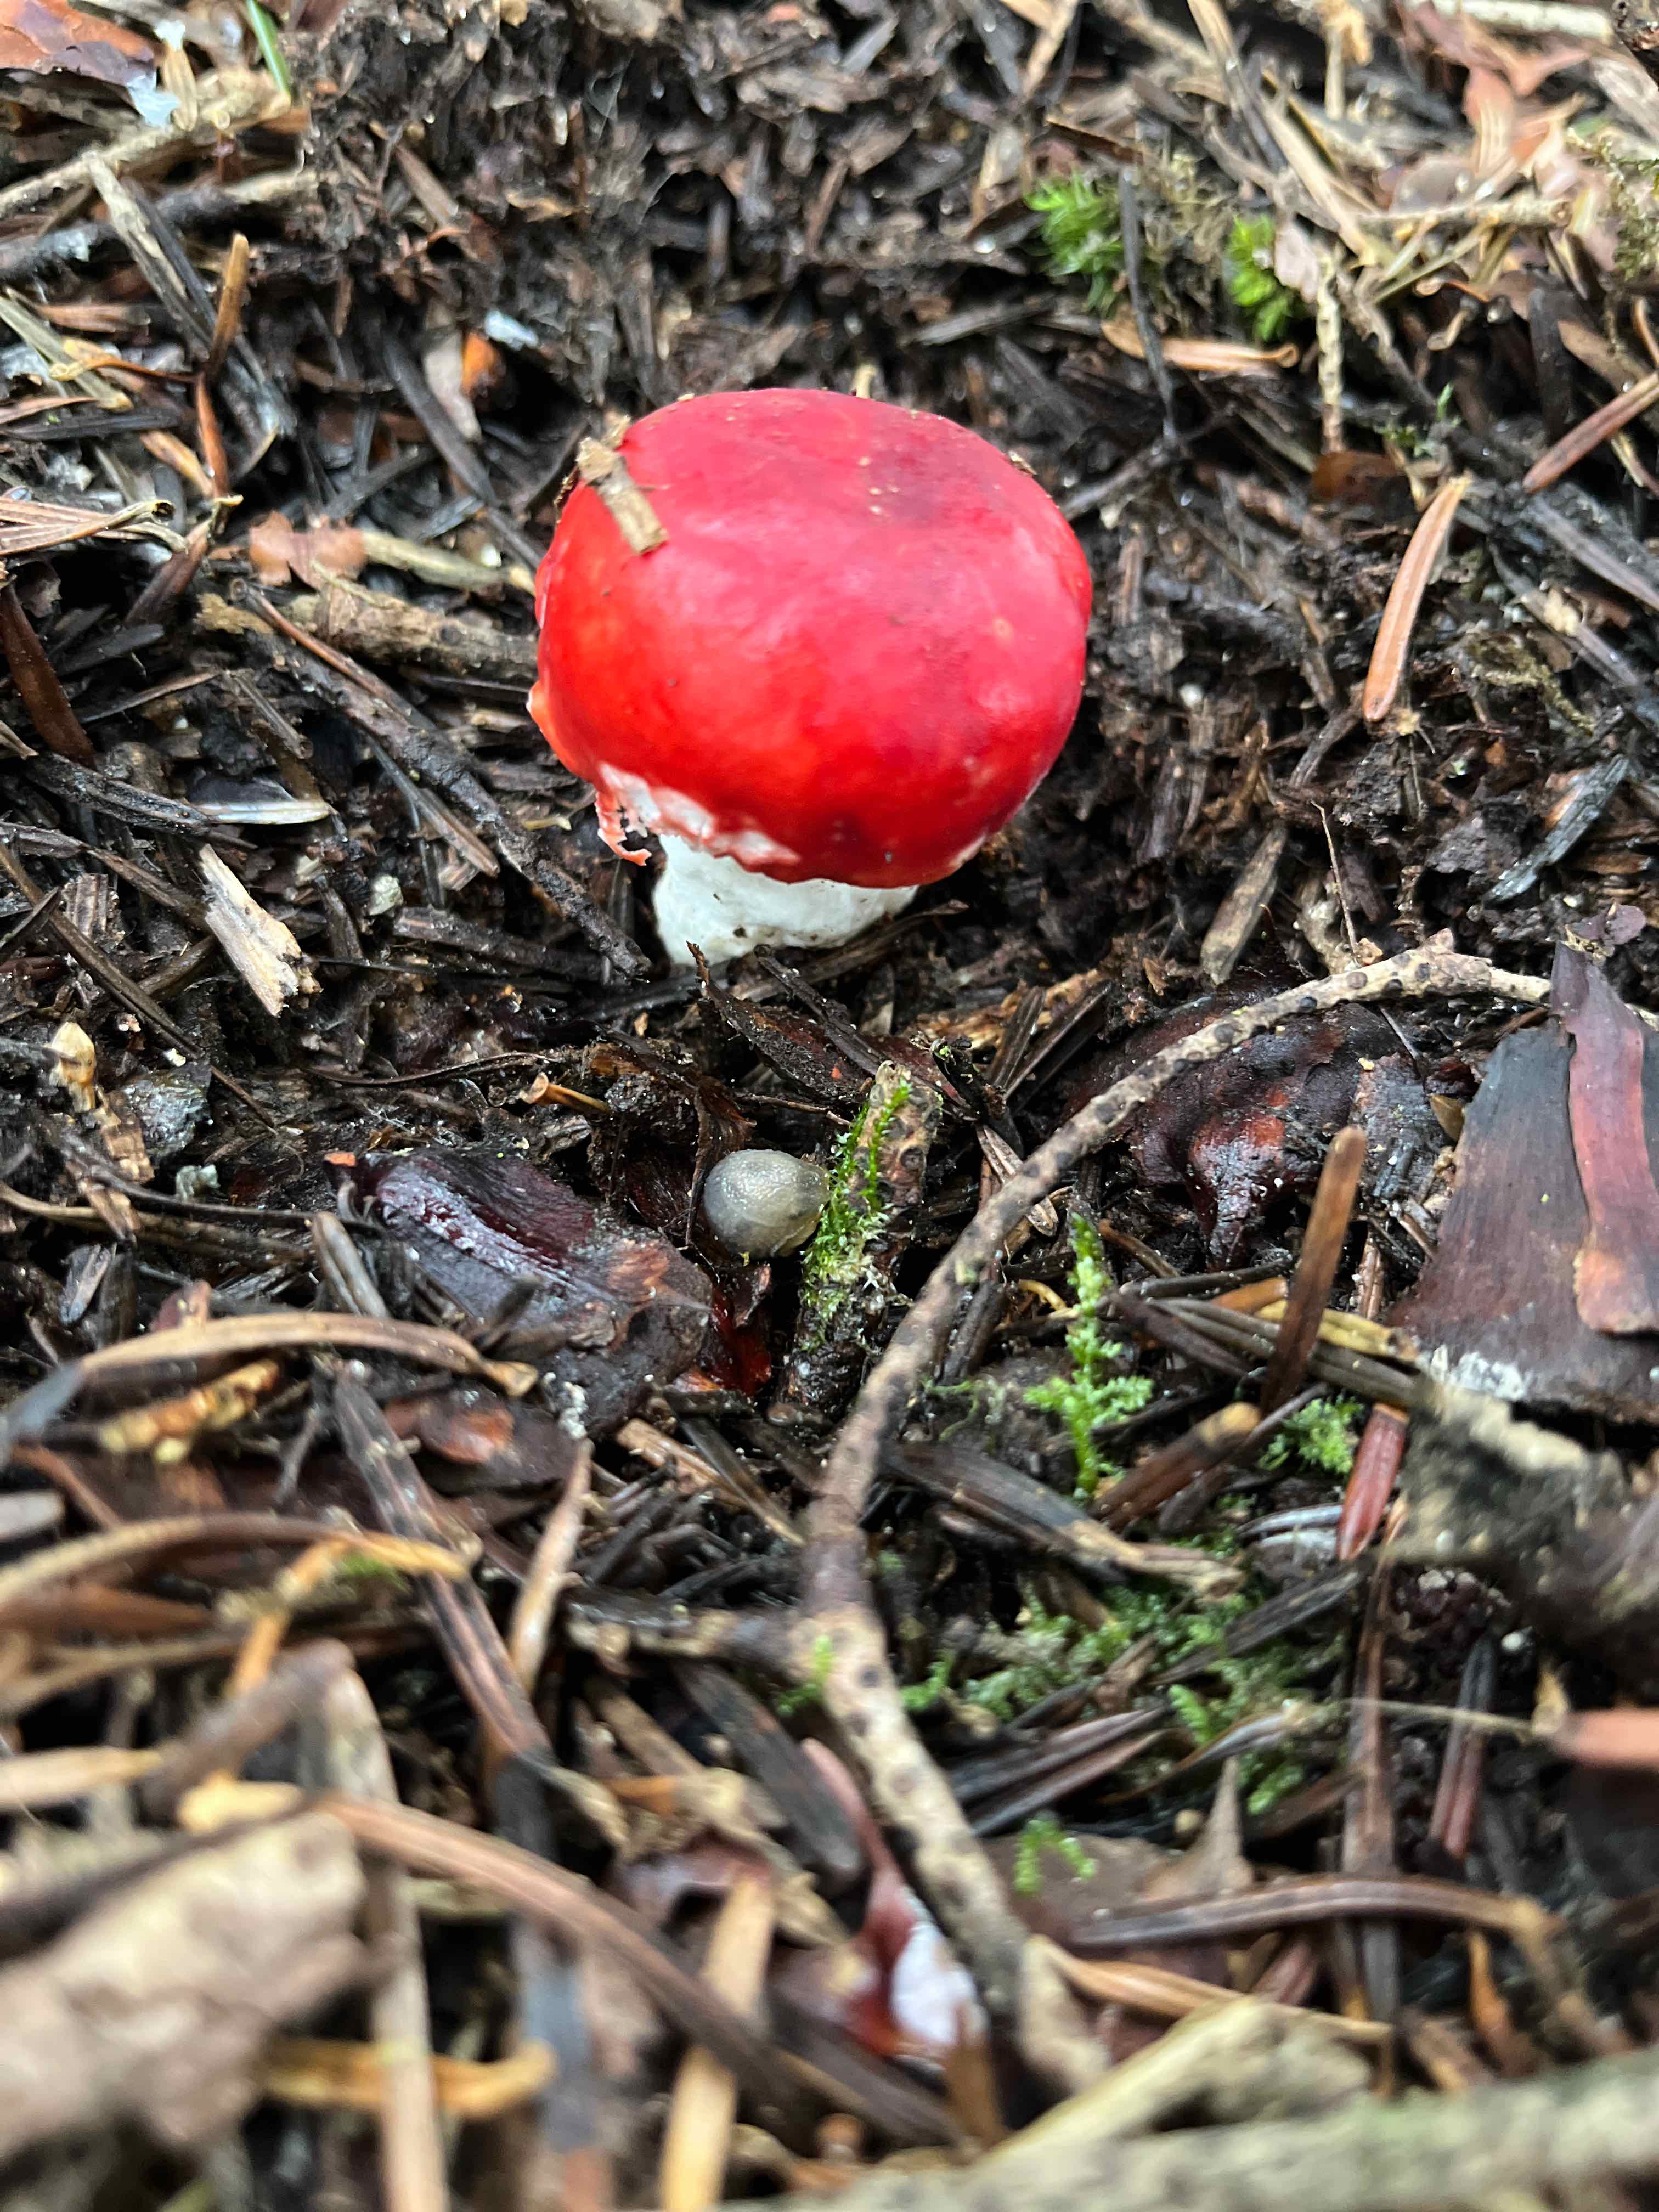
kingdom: Fungi
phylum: Basidiomycota
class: Agaricomycetes
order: Russulales
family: Russulaceae
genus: Russula
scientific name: Russula
